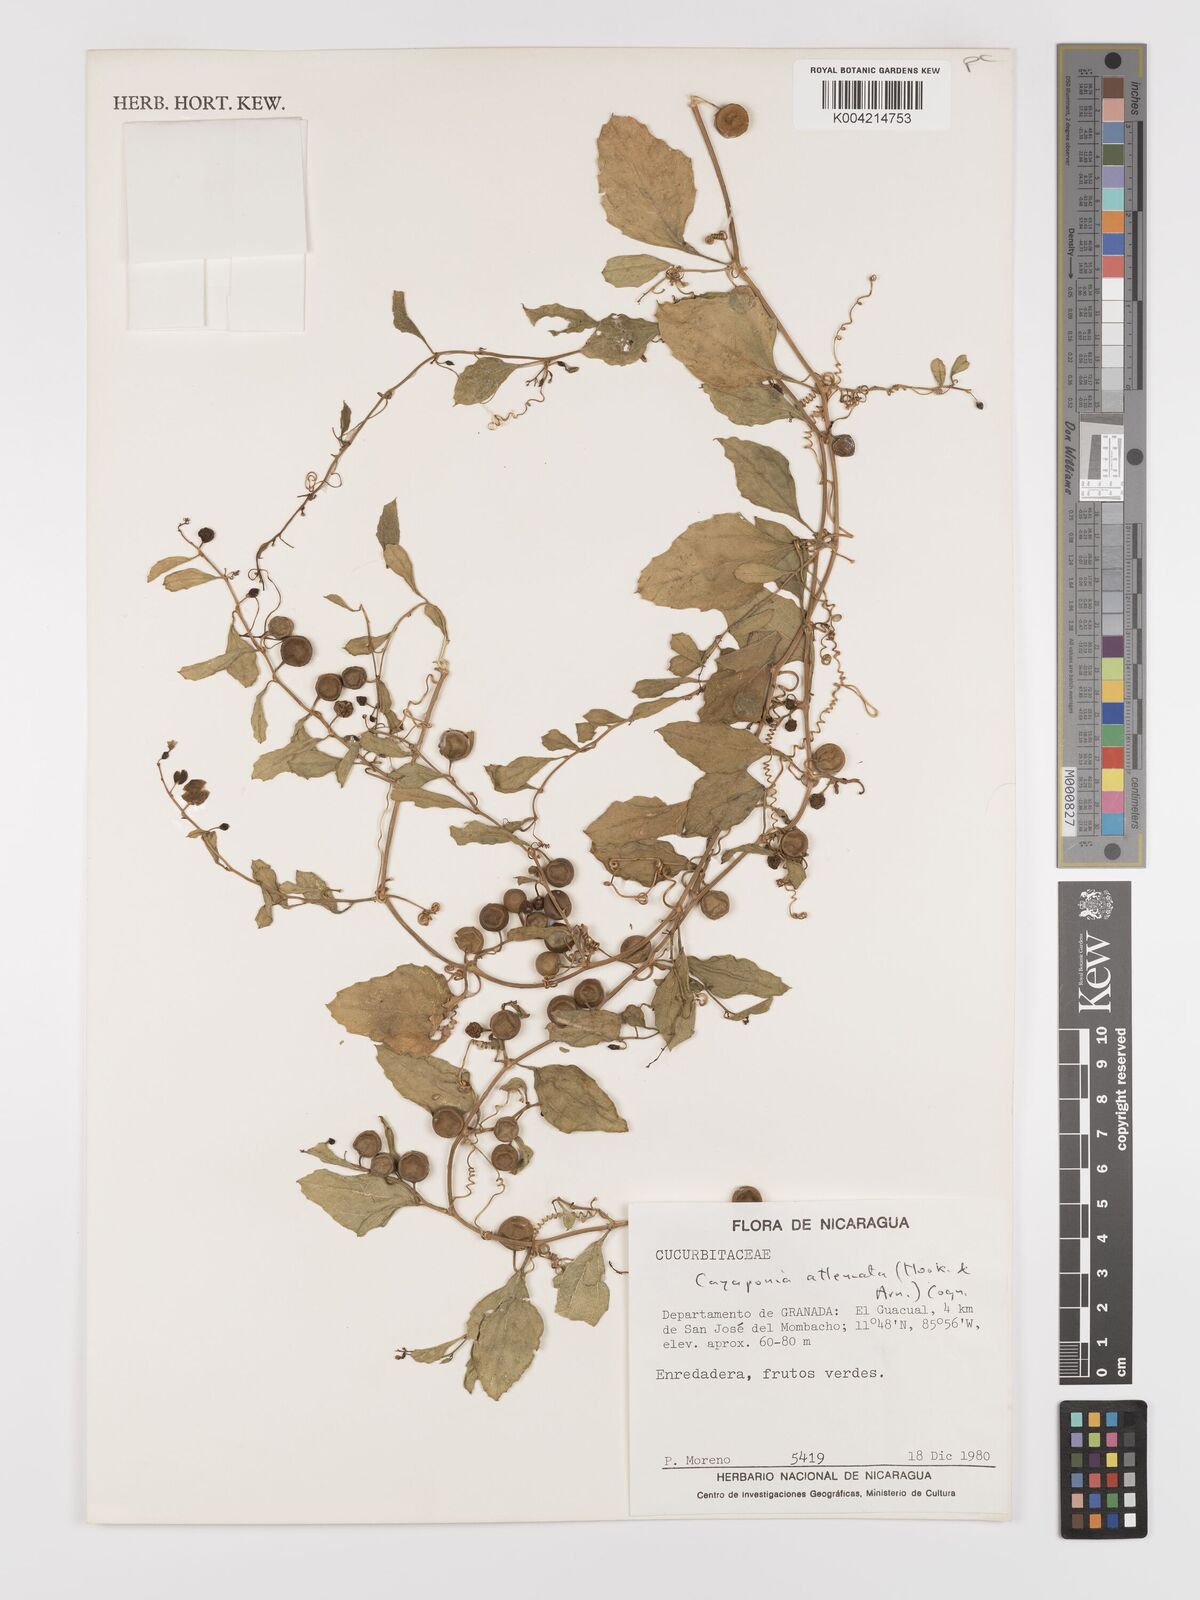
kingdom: Plantae
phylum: Tracheophyta
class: Magnoliopsida
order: Cucurbitales
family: Cucurbitaceae
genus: Cayaponia
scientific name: Cayaponia attenuata
